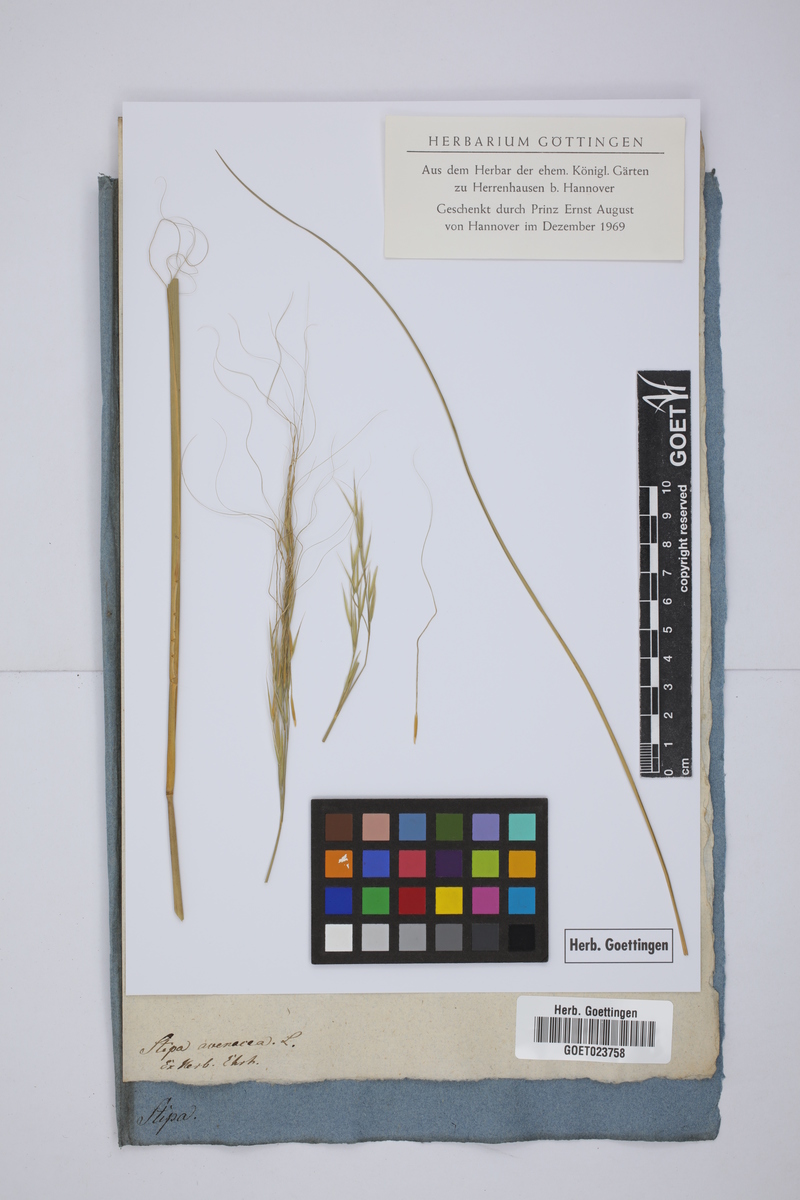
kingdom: Plantae
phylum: Tracheophyta
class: Liliopsida
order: Poales
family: Poaceae
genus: Piptochaetium
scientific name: Piptochaetium avenaceum
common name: Black bunchgrass
